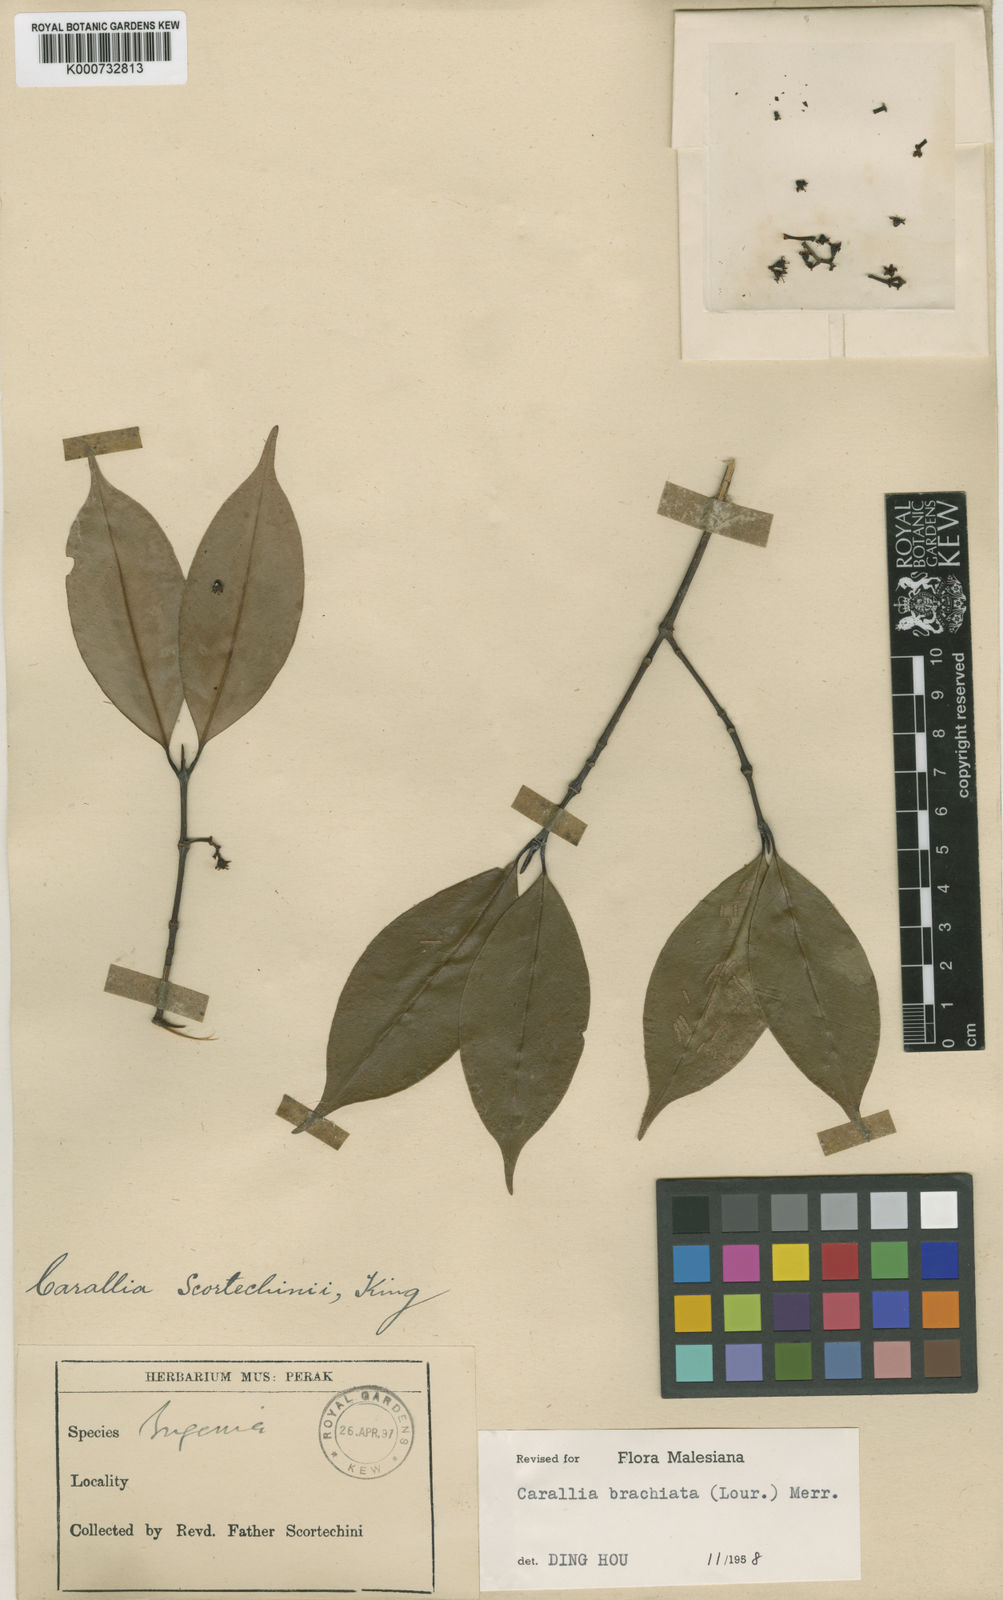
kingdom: Plantae
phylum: Tracheophyta
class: Magnoliopsida
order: Malpighiales
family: Rhizophoraceae
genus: Carallia
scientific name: Carallia brachiata
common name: Carallawood
